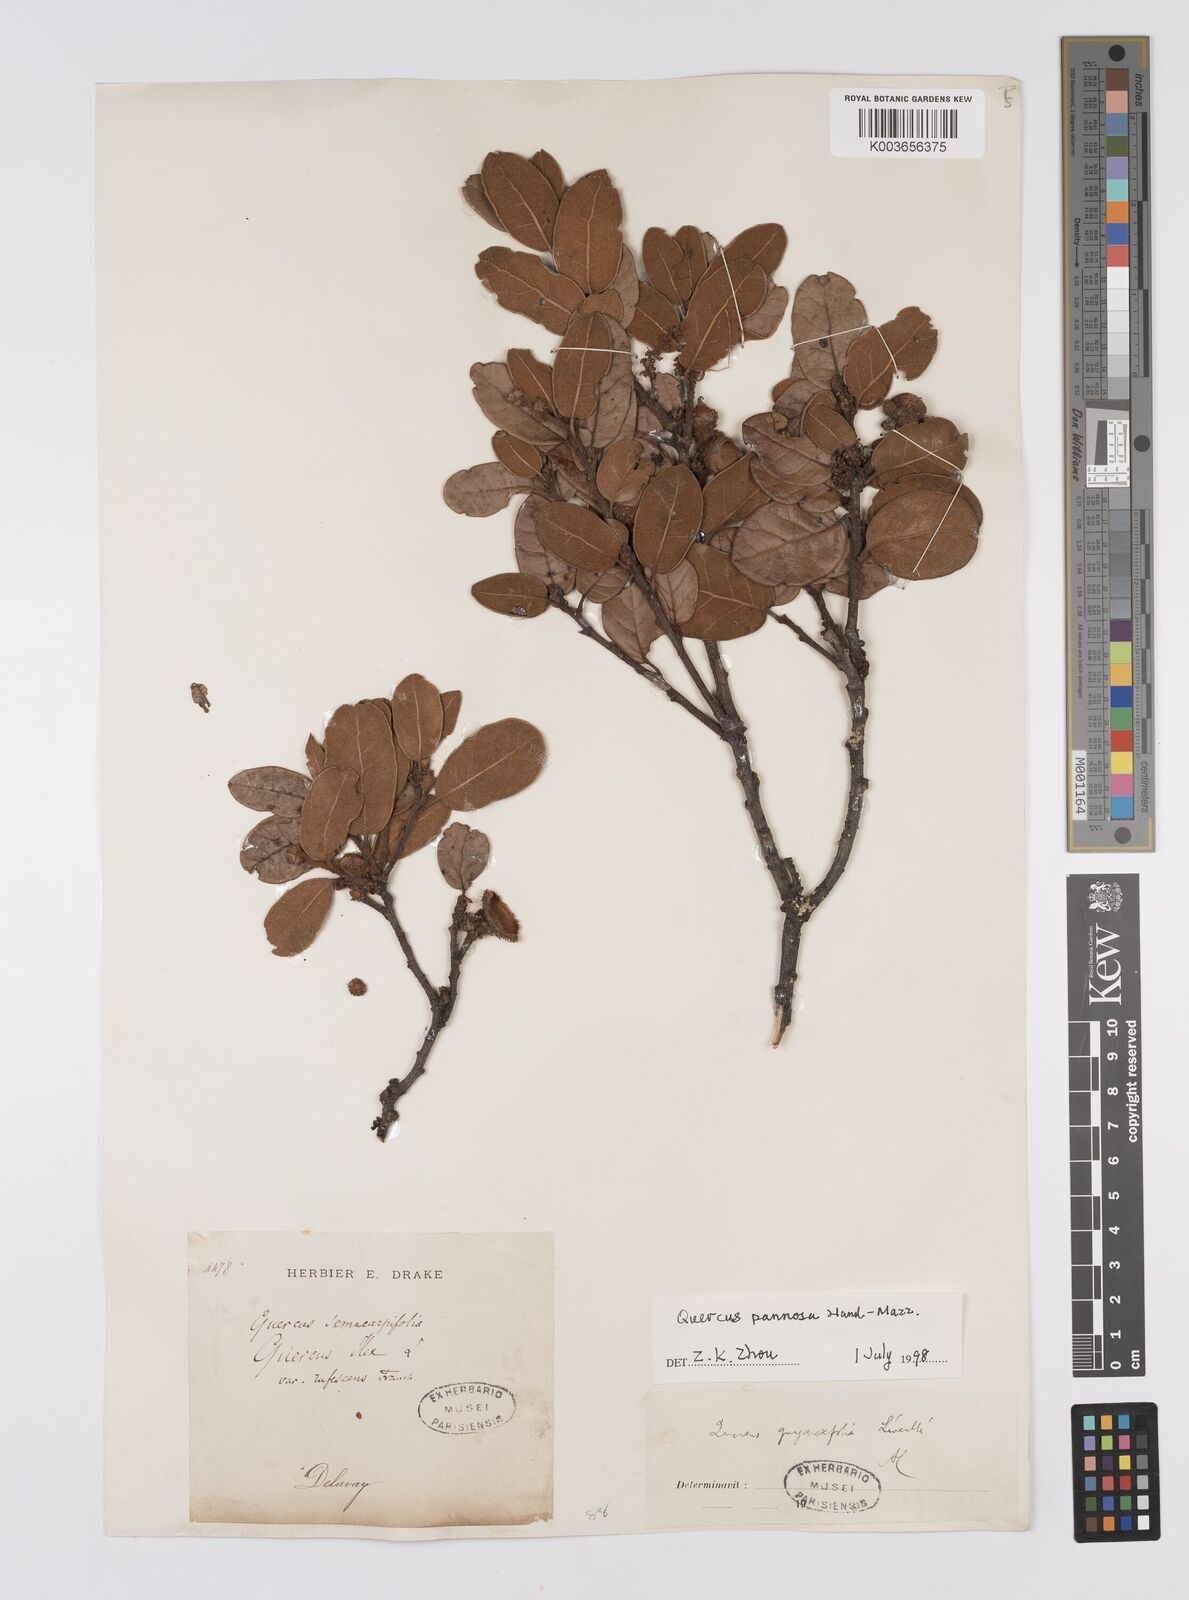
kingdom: Plantae
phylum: Tracheophyta
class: Magnoliopsida
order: Fagales
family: Fagaceae
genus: Quercus
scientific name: Quercus guyavifolia
